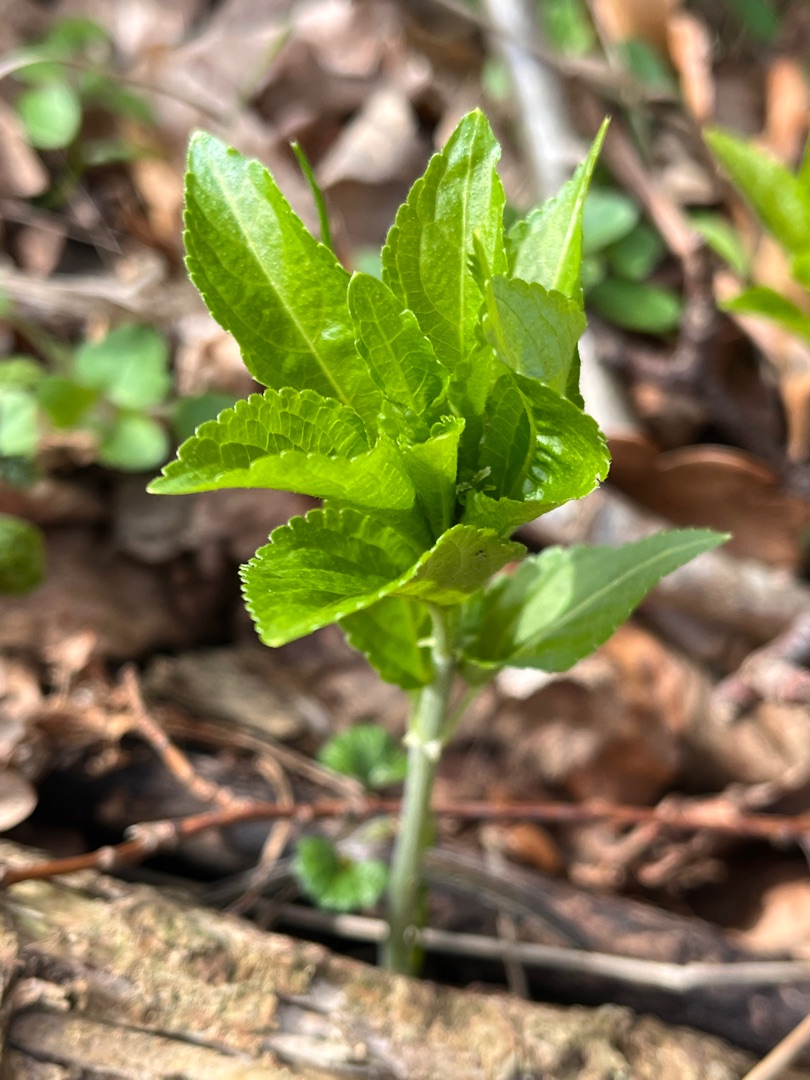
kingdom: Plantae
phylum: Tracheophyta
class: Magnoliopsida
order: Malpighiales
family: Euphorbiaceae
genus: Mercurialis
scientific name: Mercurialis perennis
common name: Almindelig bingelurt
